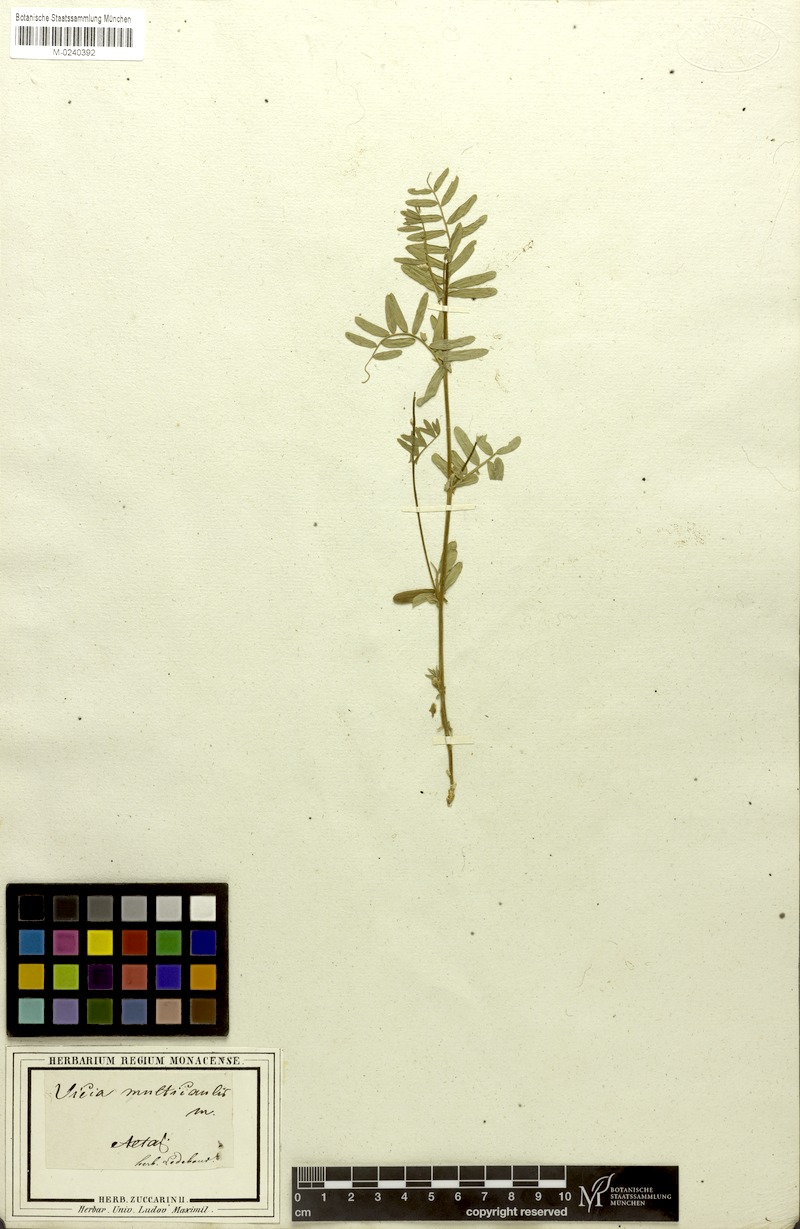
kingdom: Plantae
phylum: Tracheophyta
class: Magnoliopsida
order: Fabales
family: Fabaceae
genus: Vicia
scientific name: Vicia multicaulis
